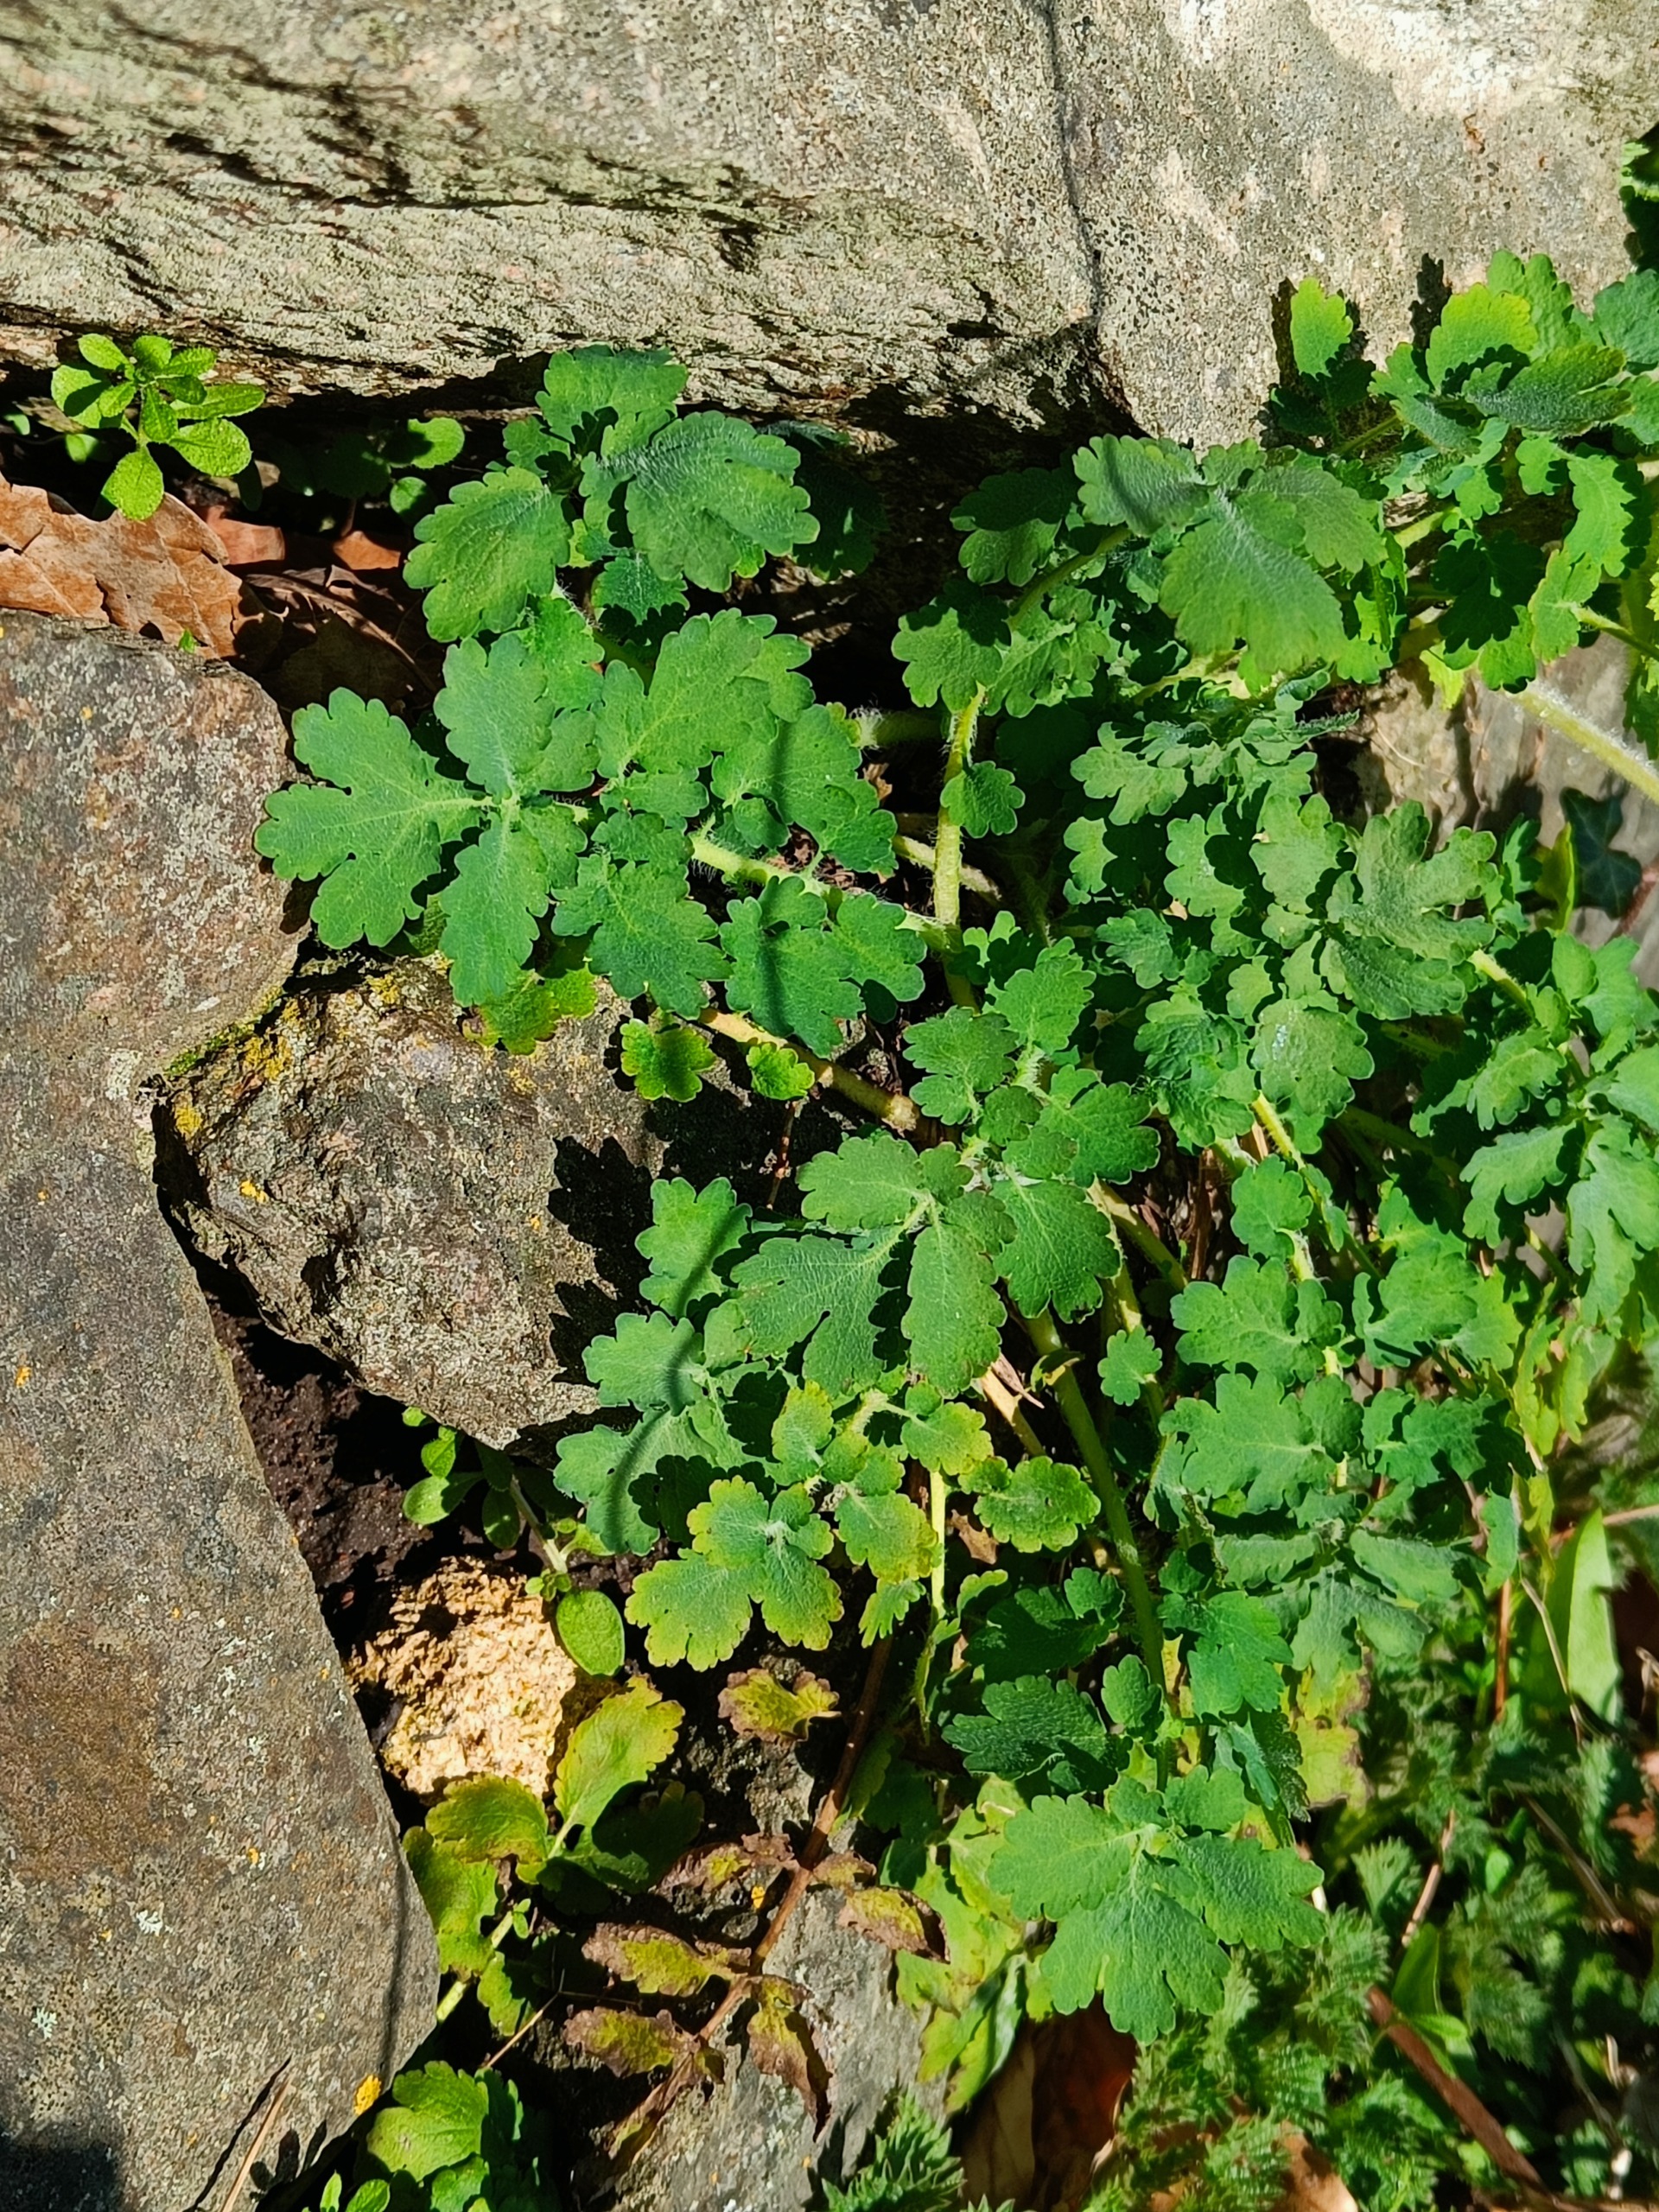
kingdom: Plantae
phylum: Tracheophyta
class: Magnoliopsida
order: Ranunculales
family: Papaveraceae
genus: Chelidonium
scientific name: Chelidonium majus
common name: Svaleurt
